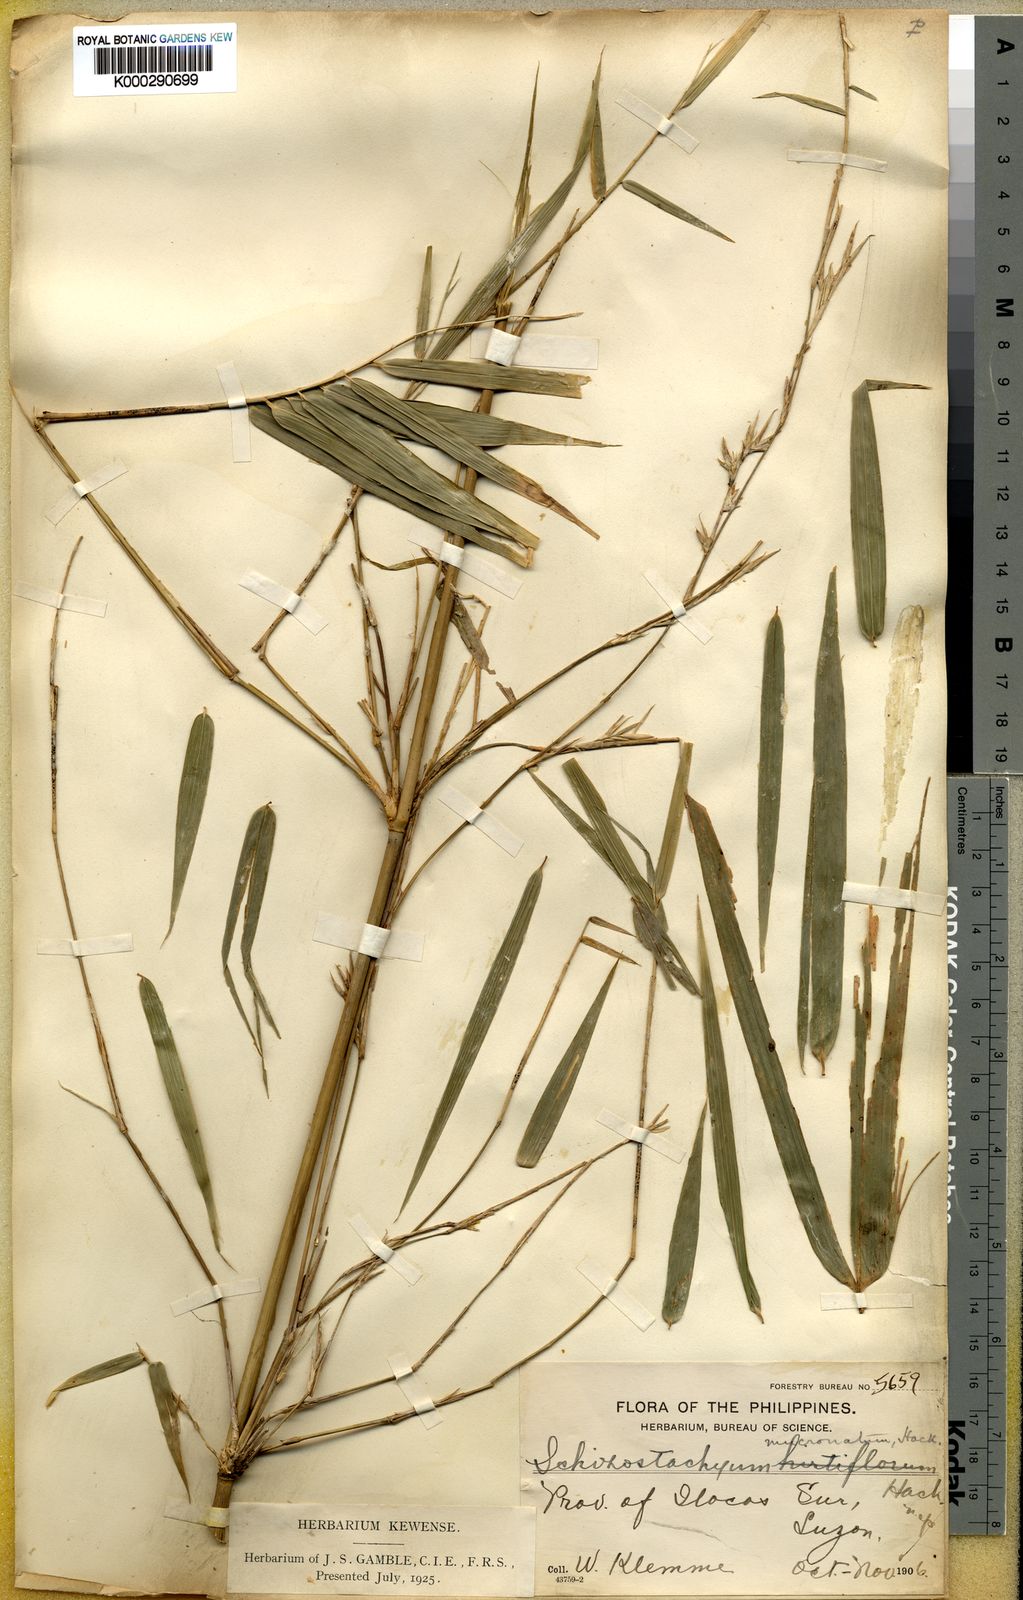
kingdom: Plantae
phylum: Tracheophyta
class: Liliopsida
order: Poales
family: Poaceae
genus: Schizostachyum
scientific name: Schizostachyum lumampao
